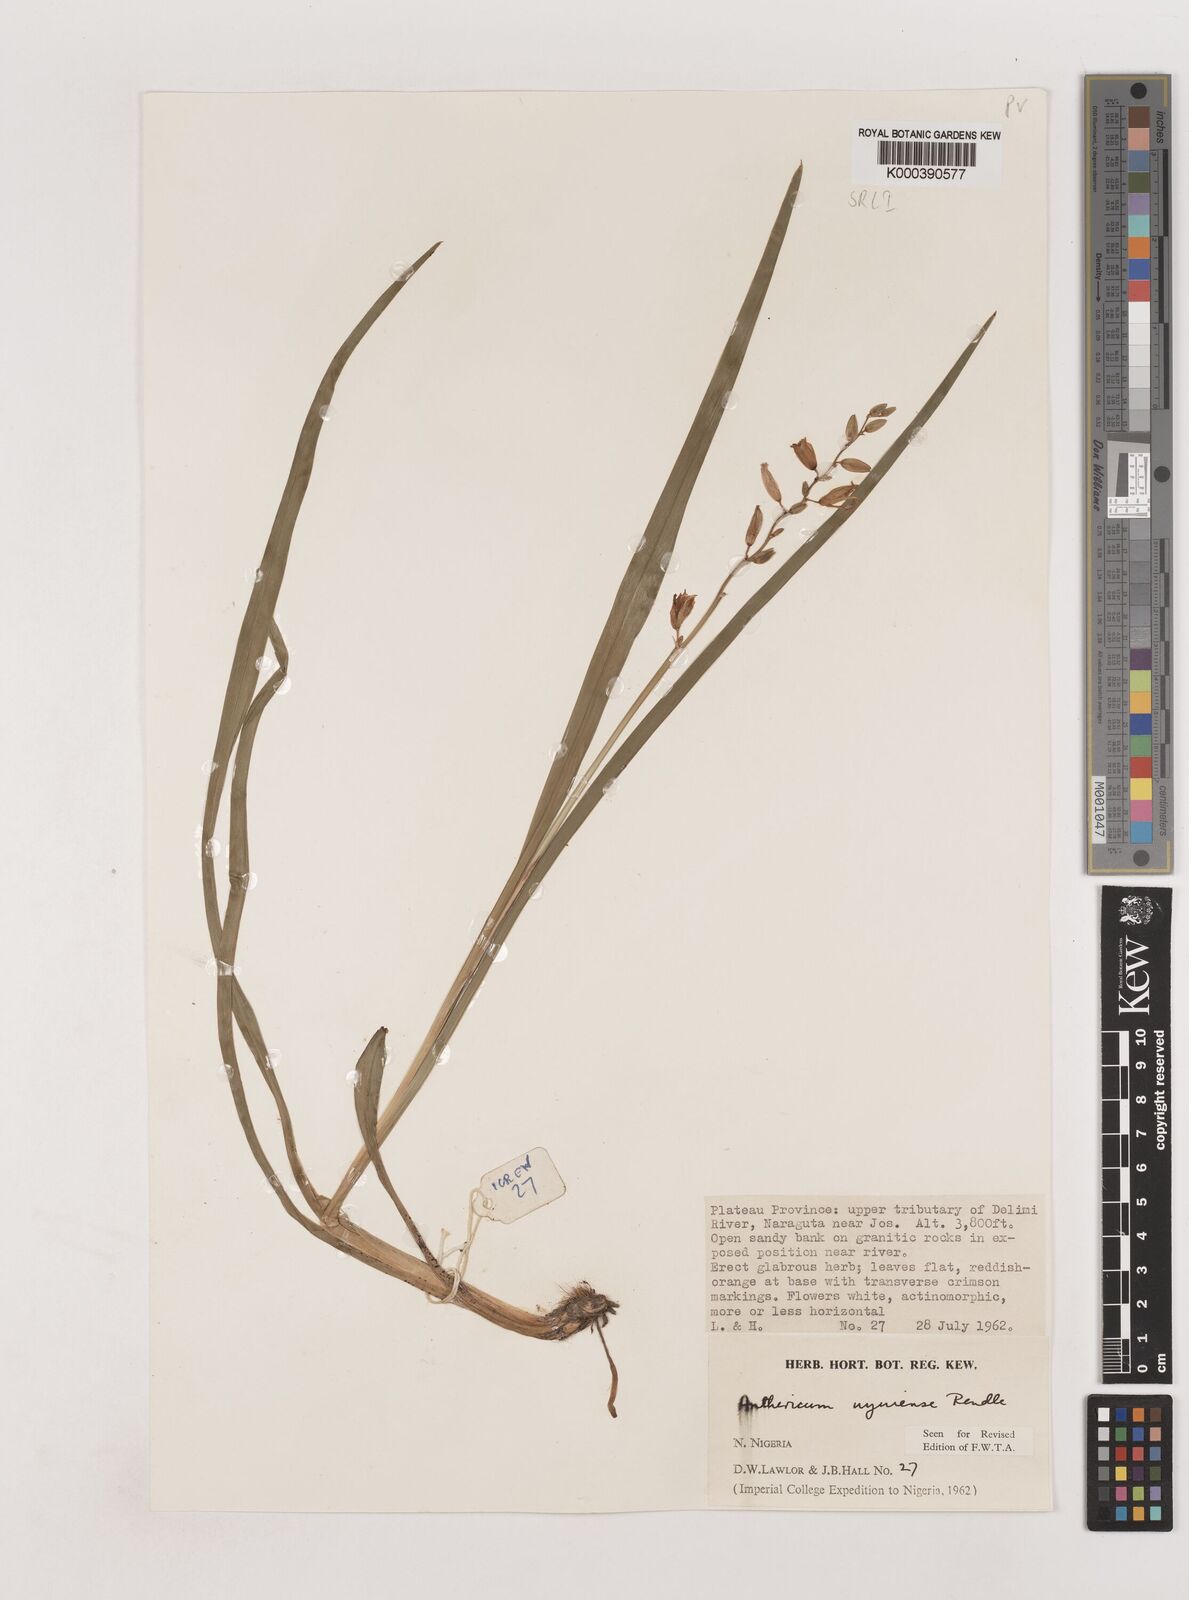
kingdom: Plantae
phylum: Tracheophyta
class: Liliopsida
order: Asparagales
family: Asparagaceae
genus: Chlorophytum
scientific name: Chlorophytum cameronii
